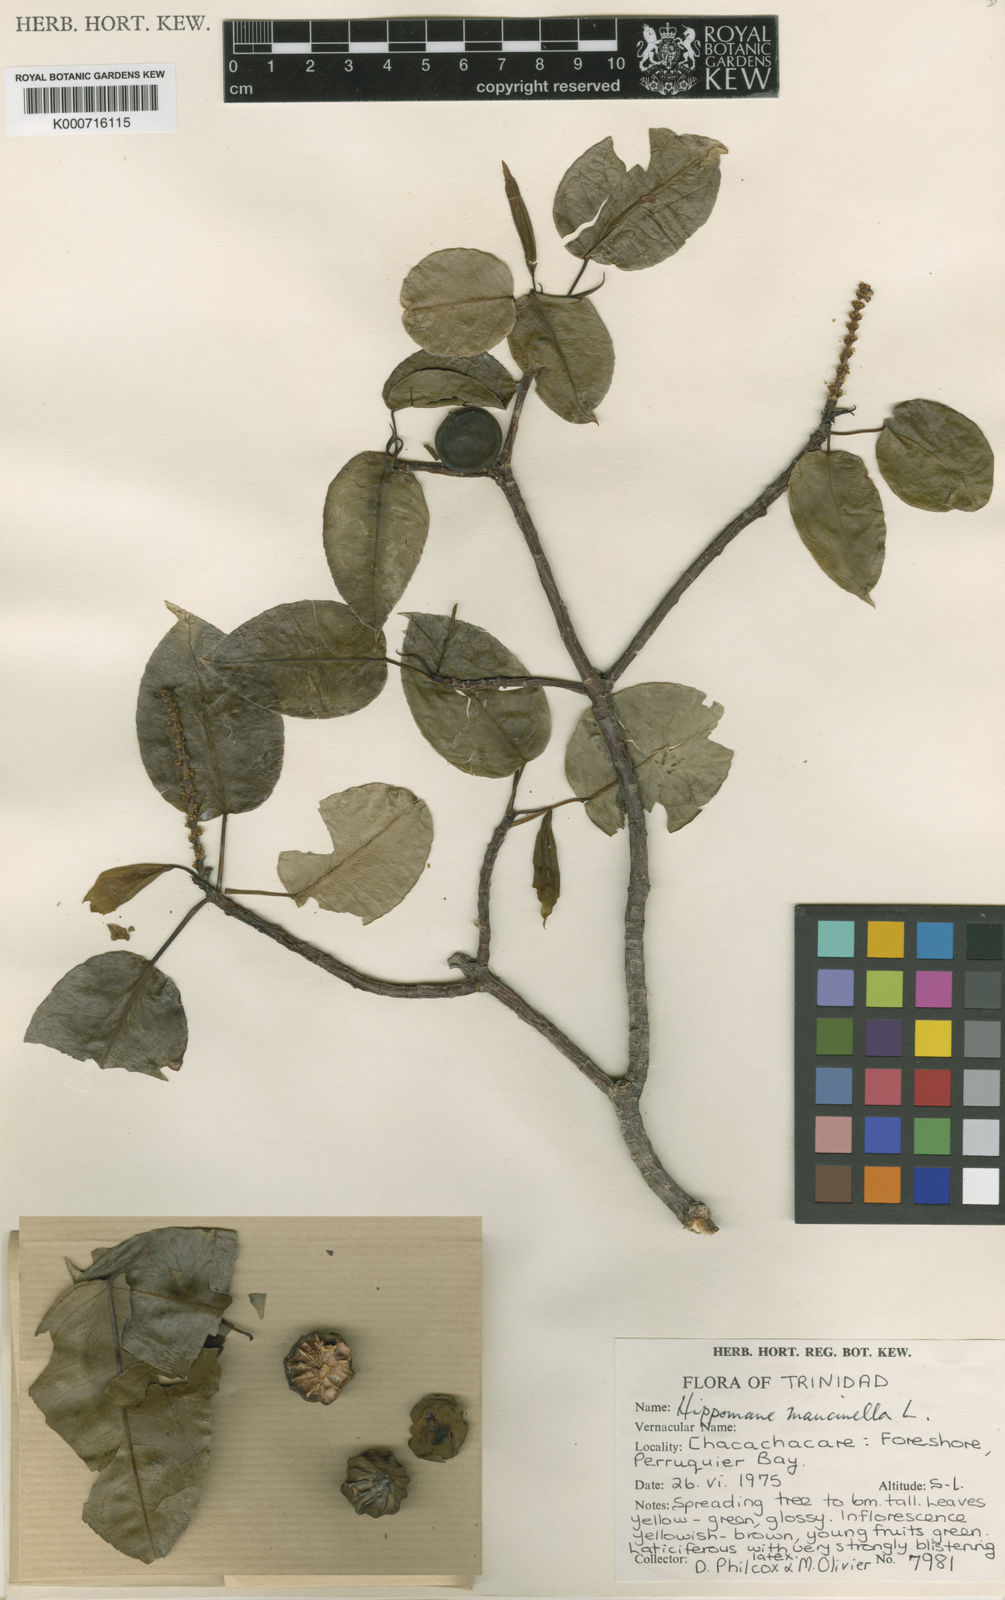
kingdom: Plantae
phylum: Tracheophyta
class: Magnoliopsida
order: Malpighiales
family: Euphorbiaceae
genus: Hippomane
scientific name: Hippomane mancinella
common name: Manchineel
